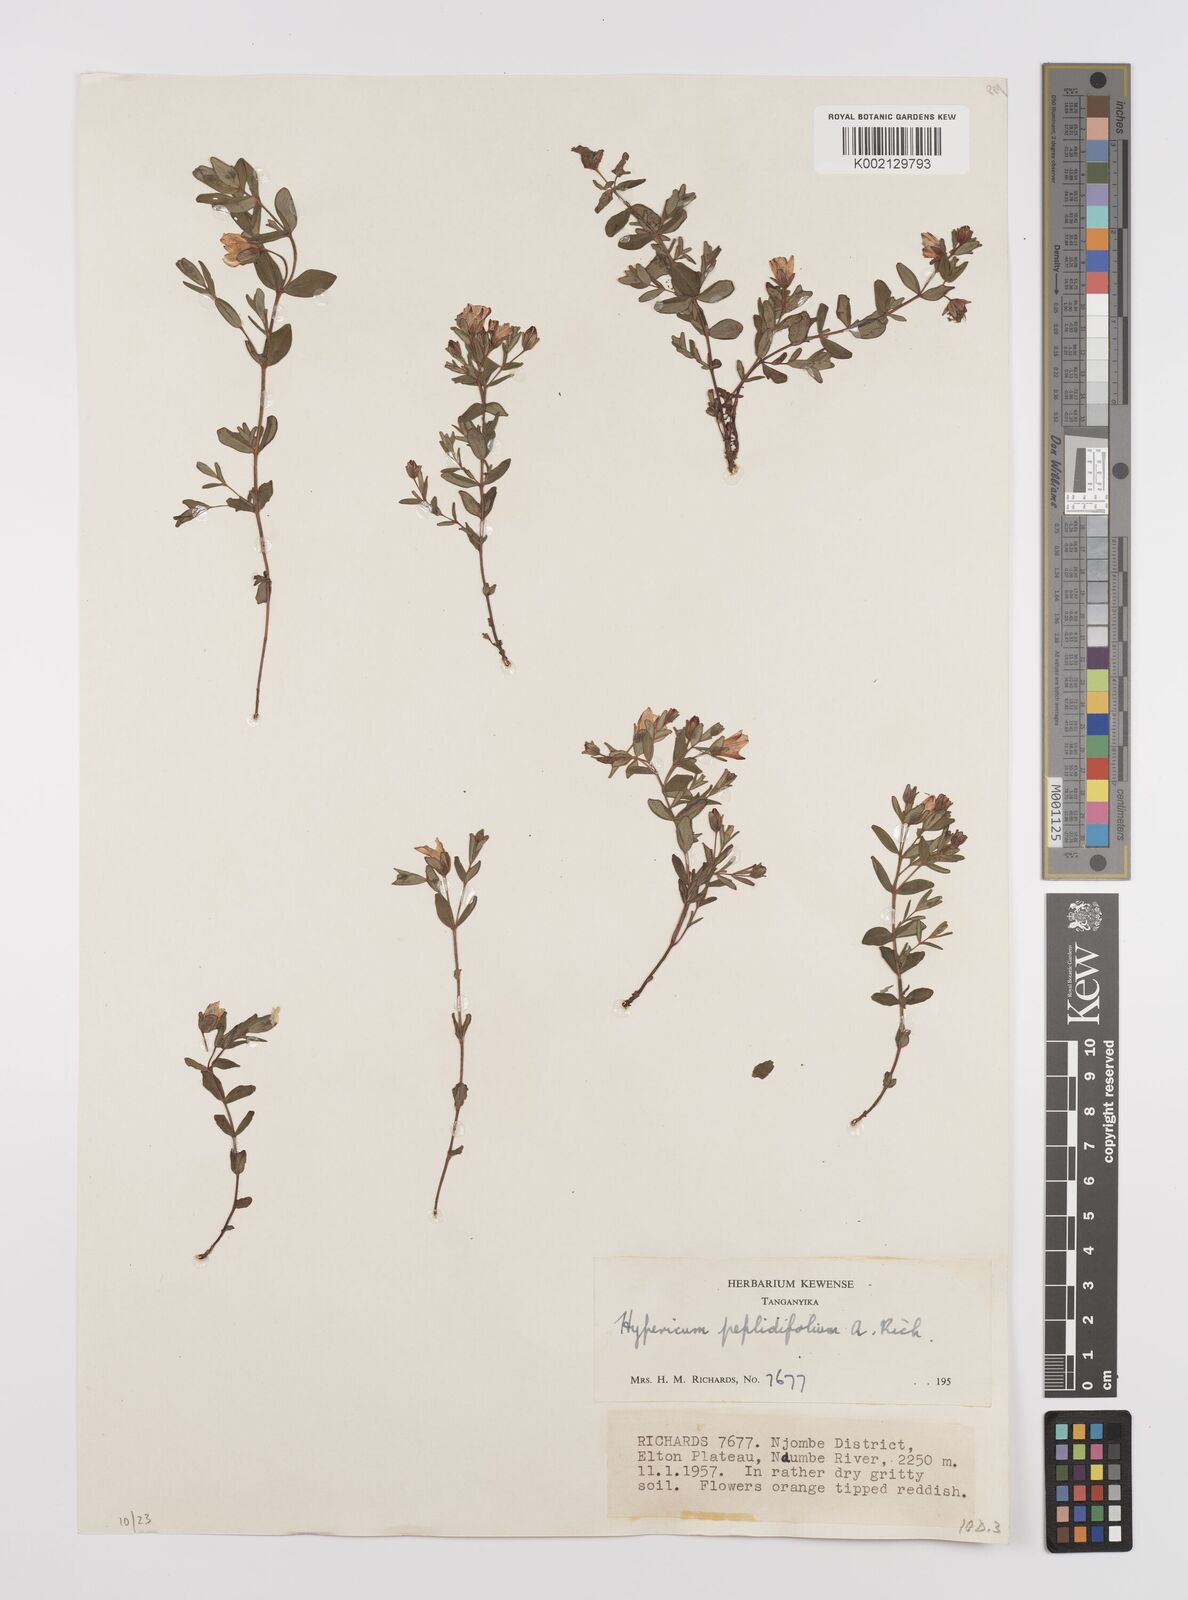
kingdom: Plantae
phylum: Tracheophyta
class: Magnoliopsida
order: Malpighiales
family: Hypericaceae
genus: Hypericum
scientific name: Hypericum peplidifolium
